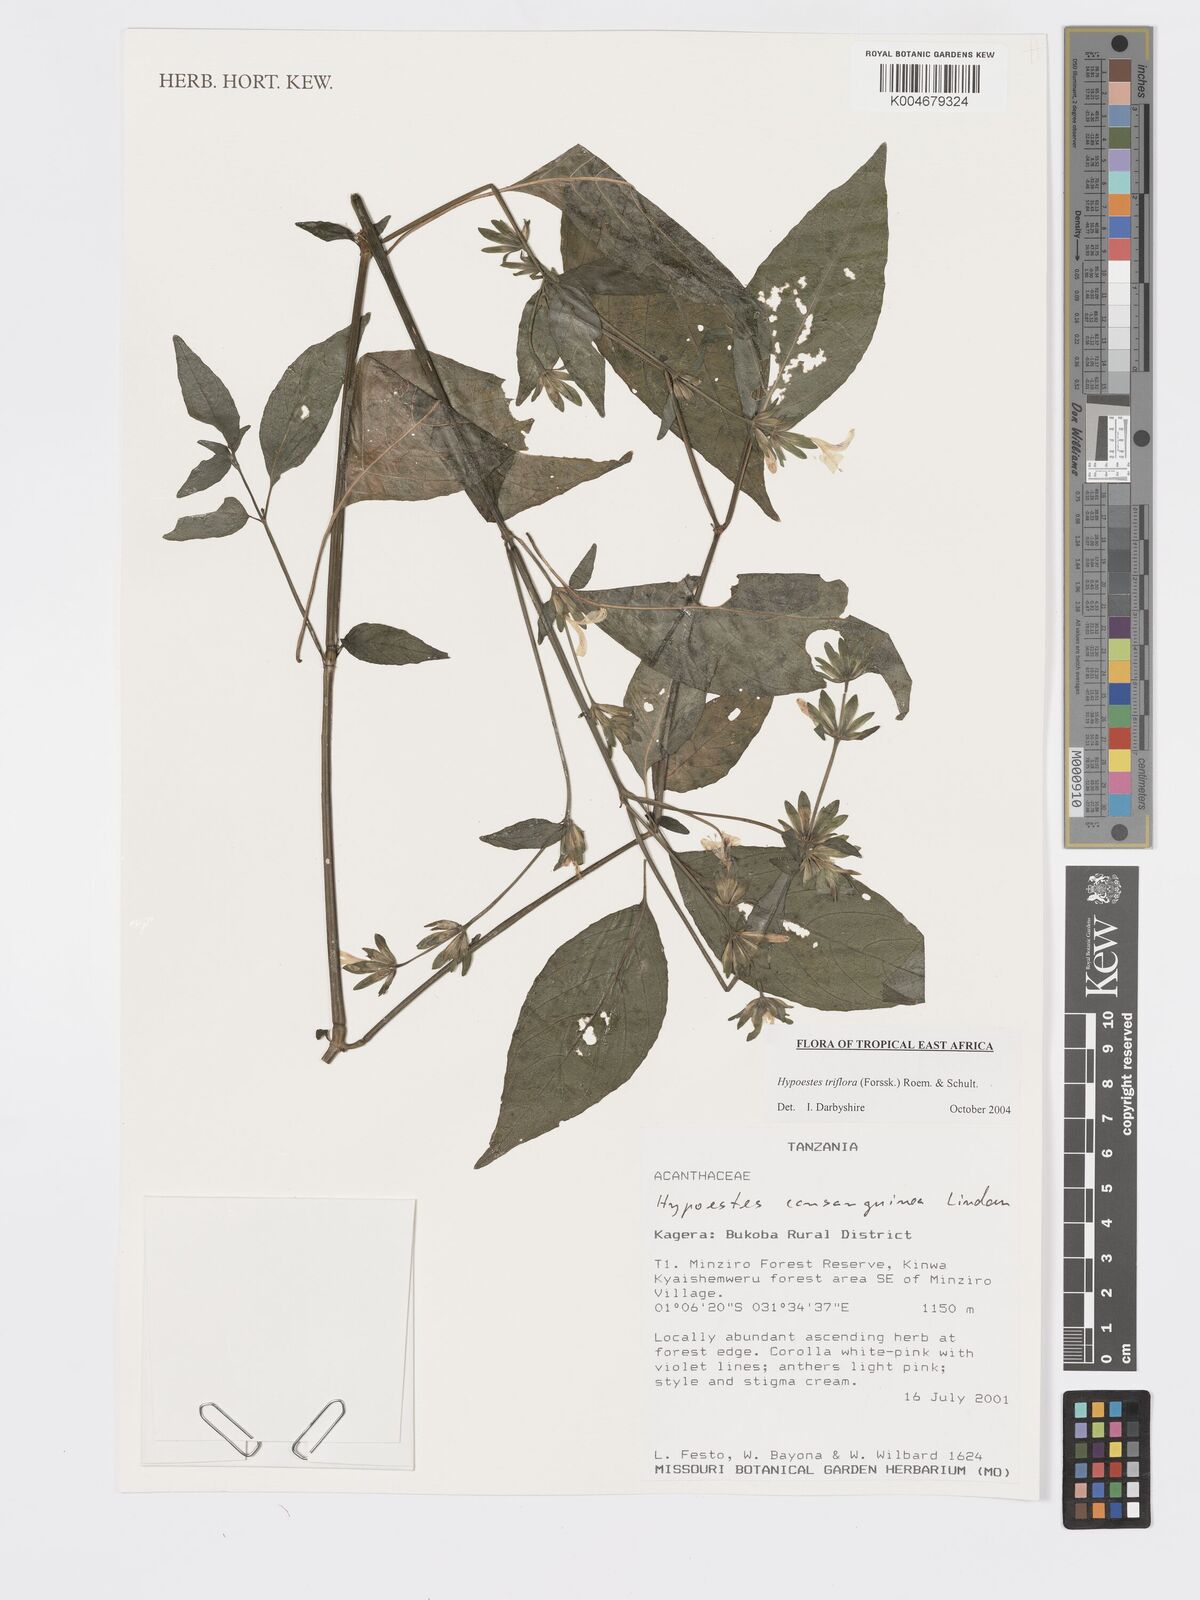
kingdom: Plantae
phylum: Tracheophyta
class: Magnoliopsida
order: Lamiales
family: Acanthaceae
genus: Hypoestes
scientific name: Hypoestes triflora
